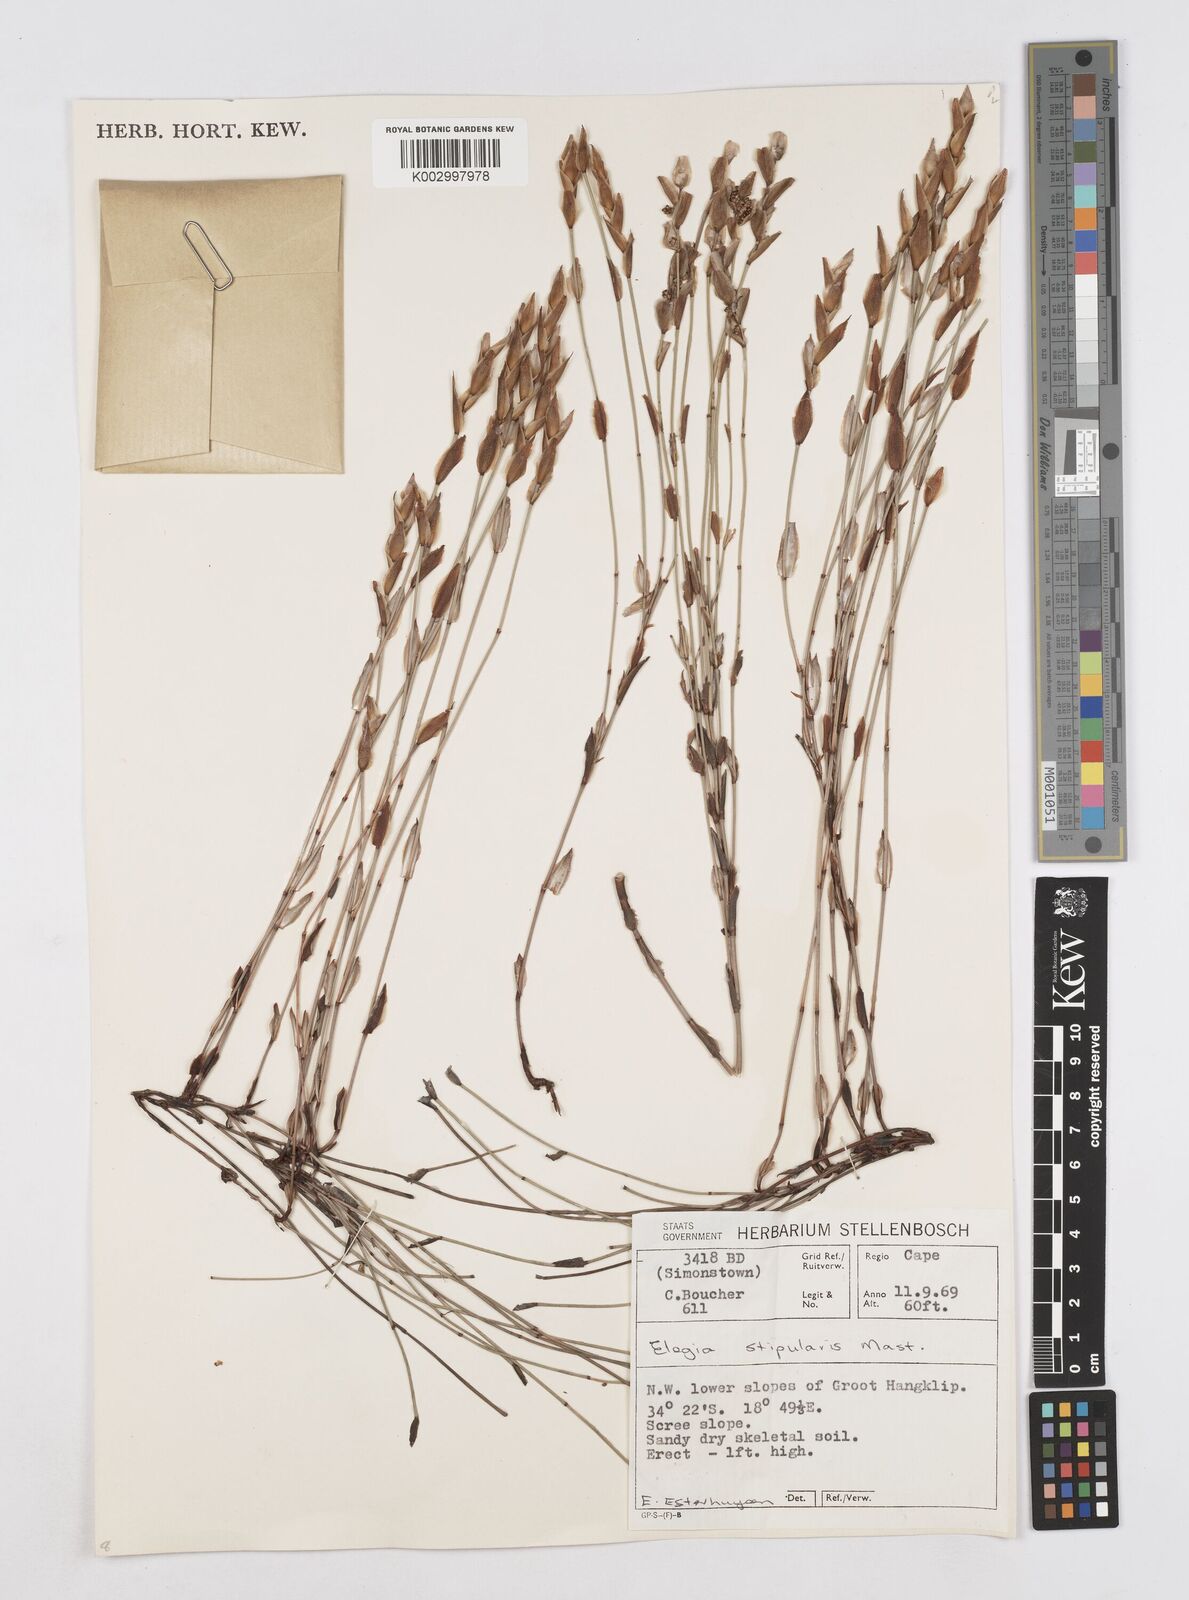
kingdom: Plantae
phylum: Tracheophyta
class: Liliopsida
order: Poales
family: Restionaceae
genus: Elegia
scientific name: Elegia stipularis
